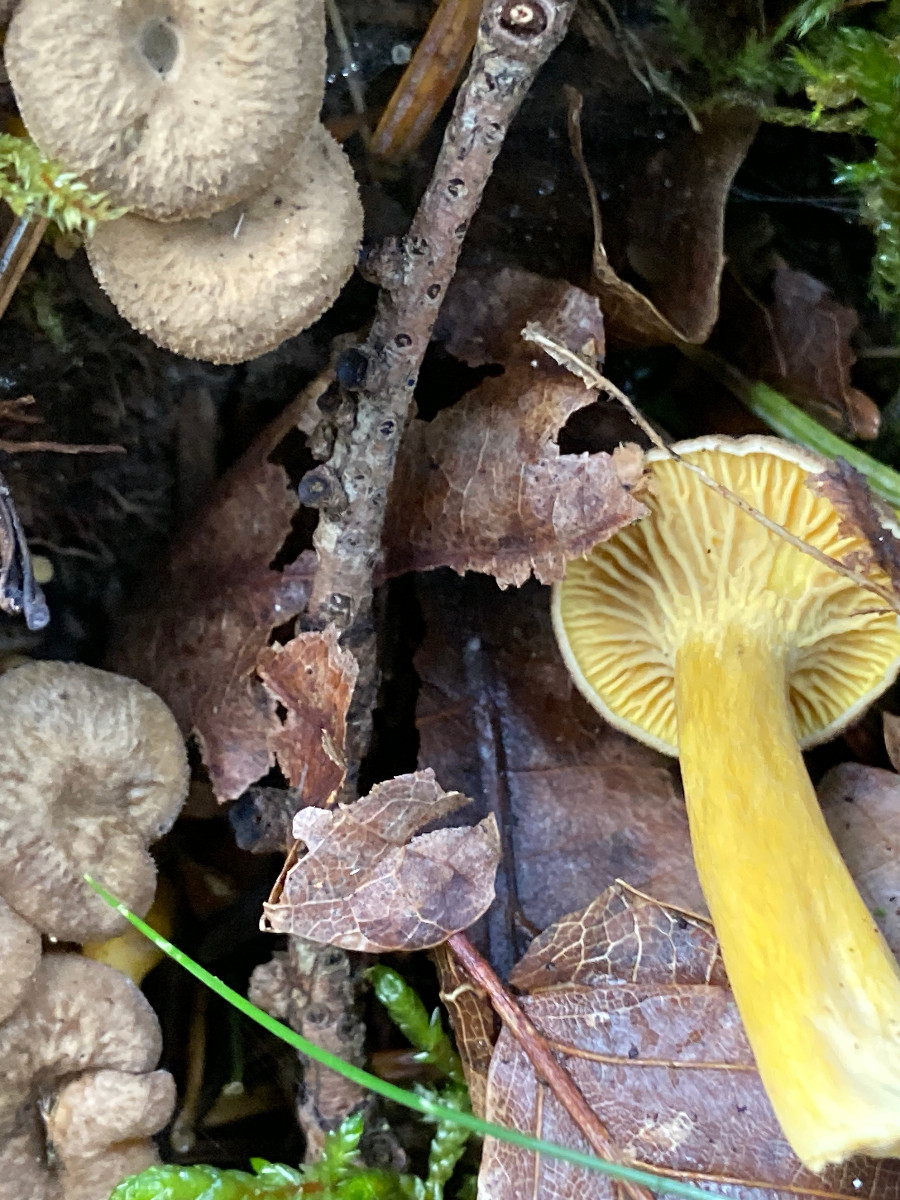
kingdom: Fungi
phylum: Basidiomycota
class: Agaricomycetes
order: Cantharellales
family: Hydnaceae
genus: Craterellus
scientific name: Craterellus tubaeformis
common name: tragt-kantarel
